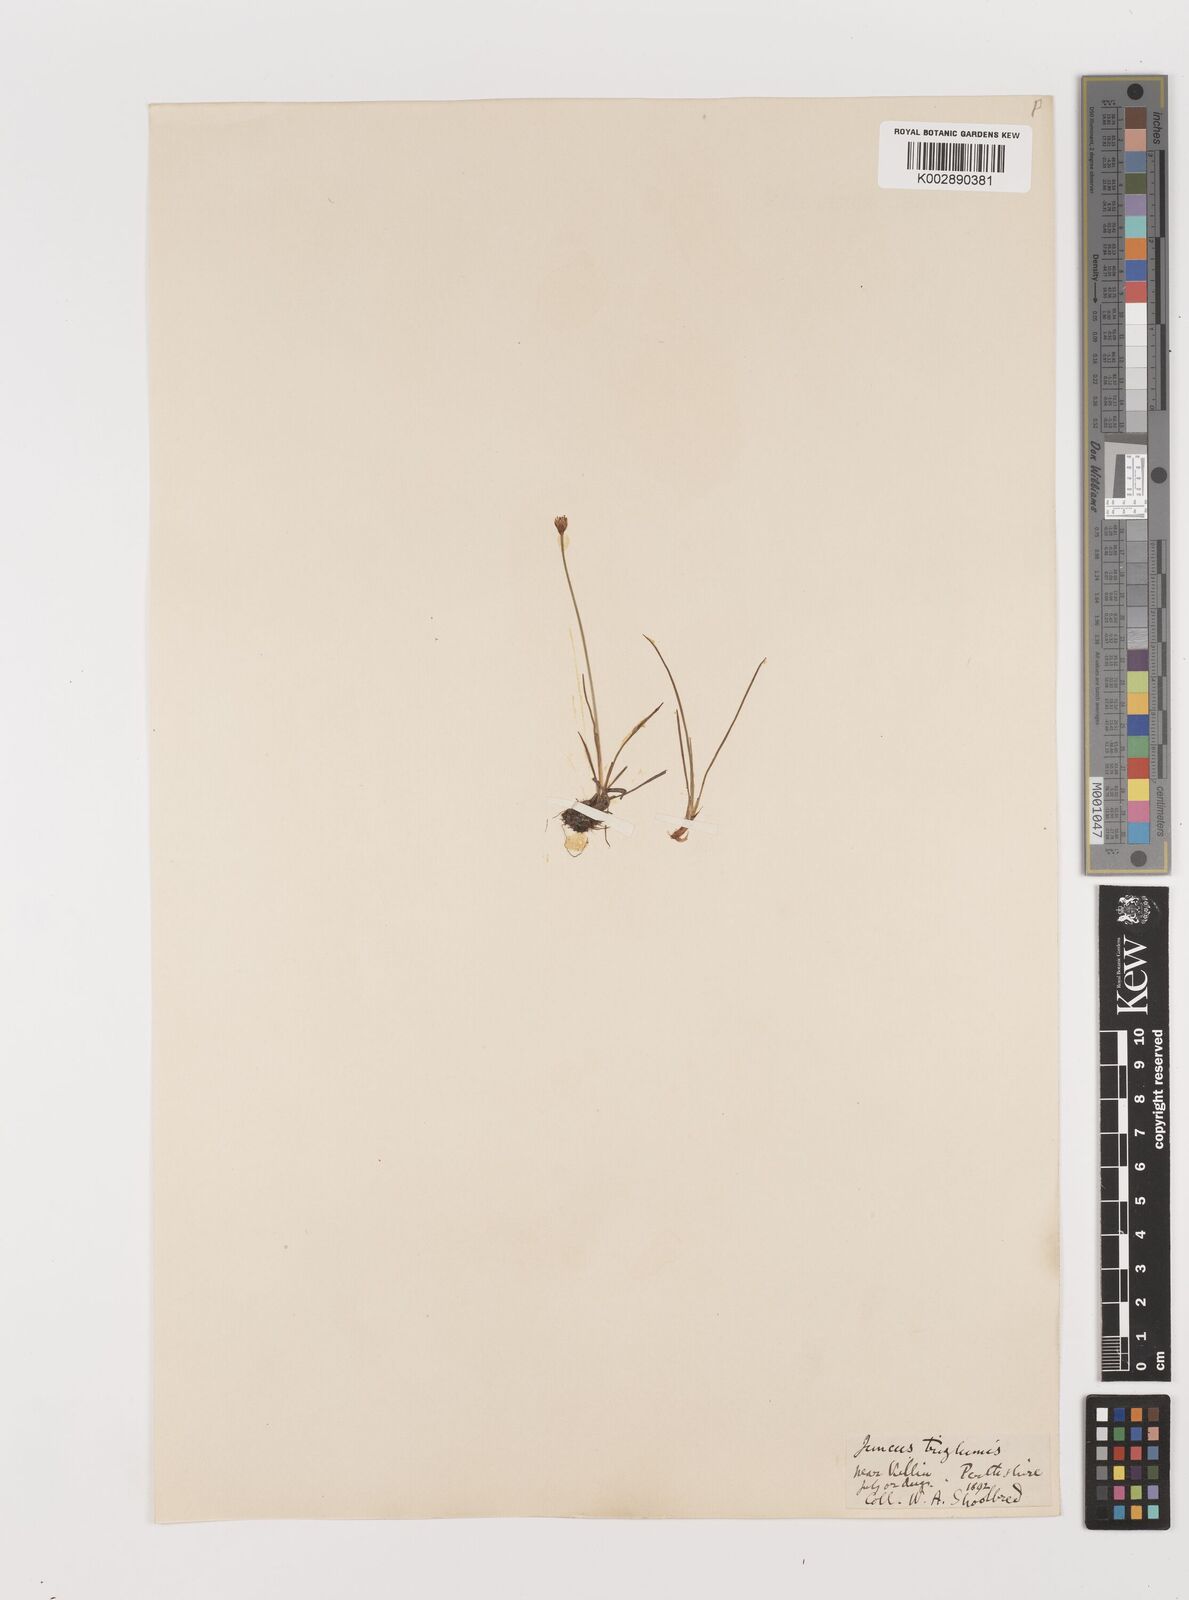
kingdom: Plantae
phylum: Tracheophyta
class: Liliopsida
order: Poales
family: Juncaceae
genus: Juncus
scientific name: Juncus triglumis
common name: Three-flowered rush
